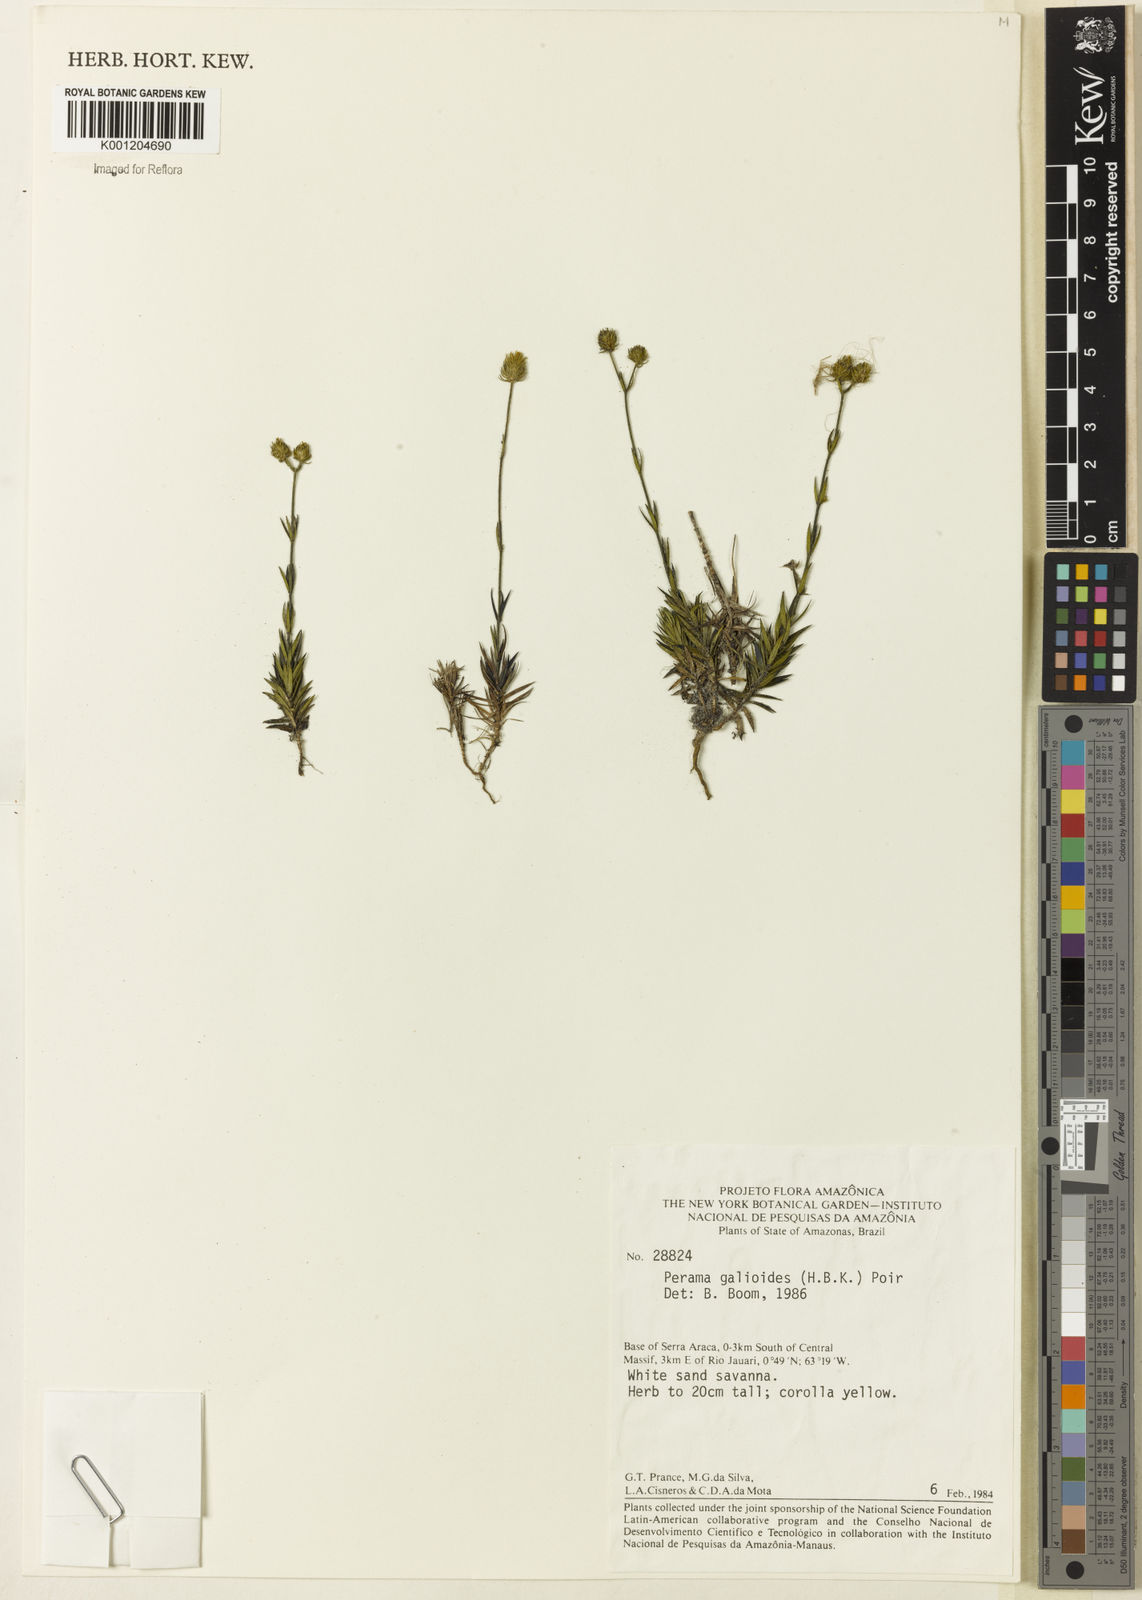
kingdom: Plantae
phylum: Tracheophyta
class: Magnoliopsida
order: Gentianales
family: Rubiaceae
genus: Perama
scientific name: Perama galioides
